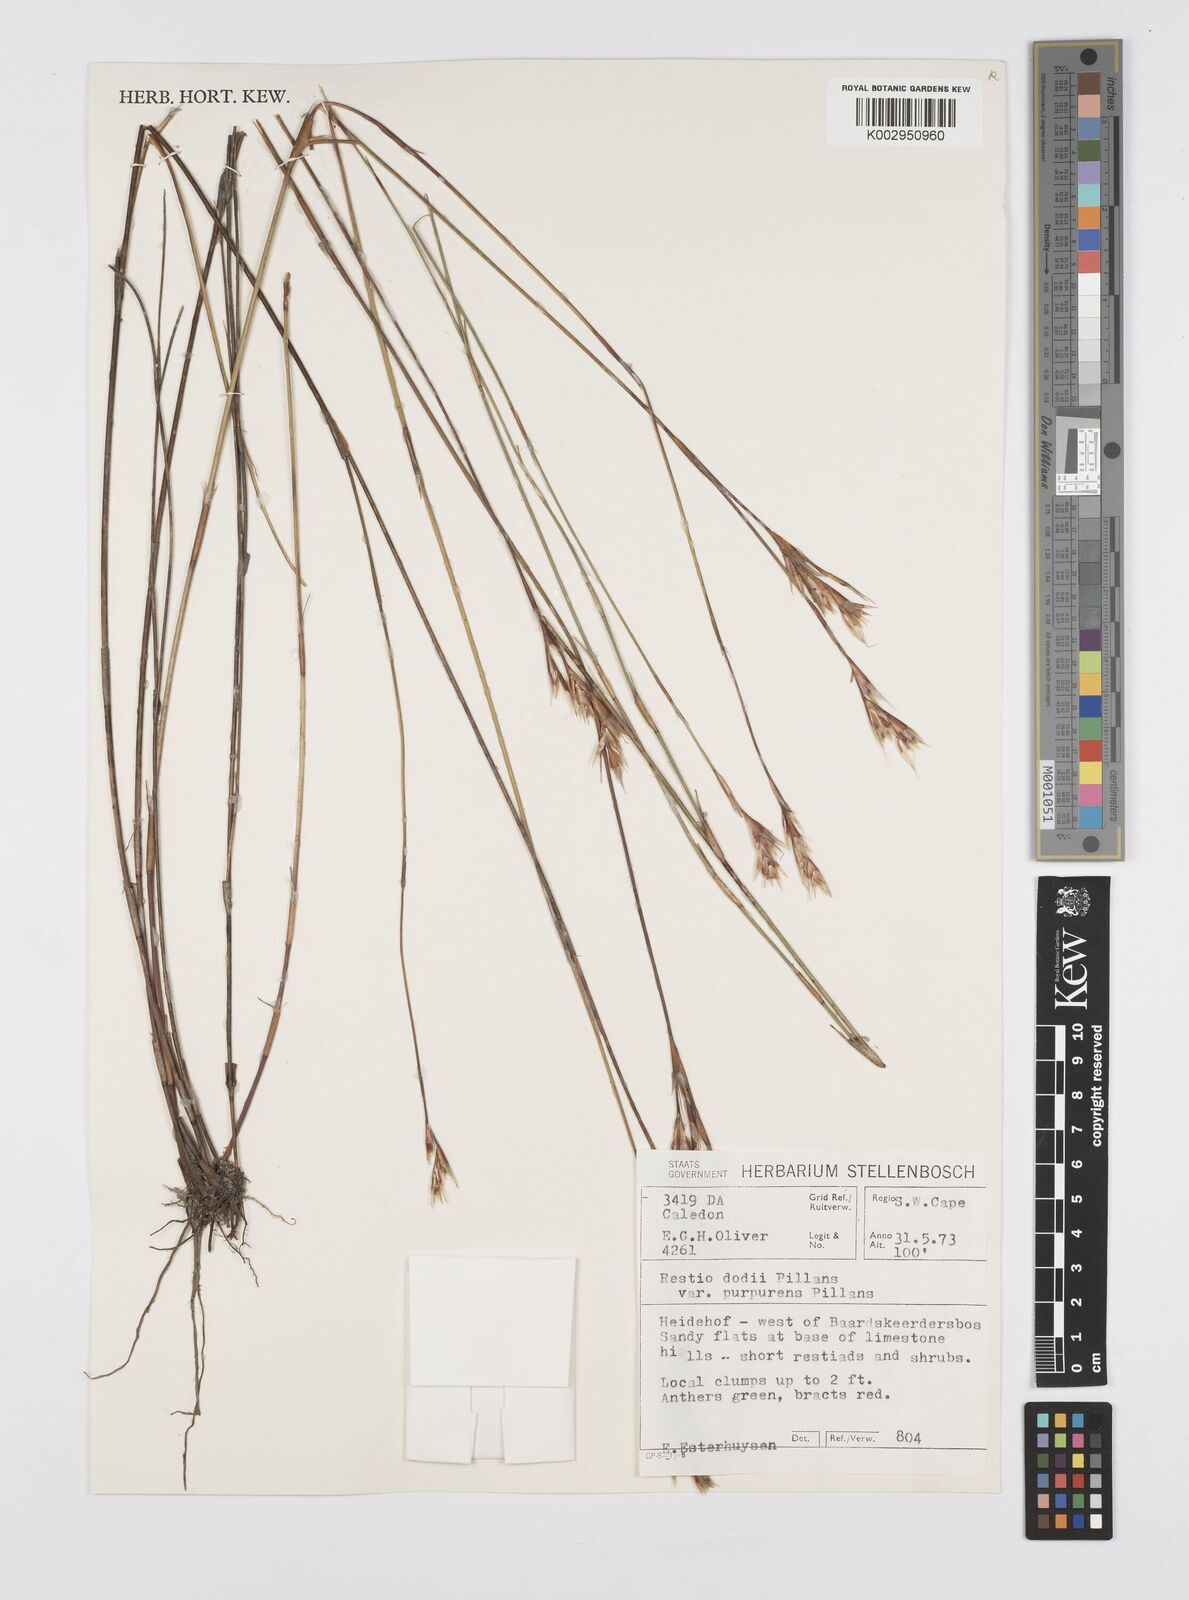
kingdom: Plantae
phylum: Tracheophyta
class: Liliopsida
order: Poales
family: Restionaceae
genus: Restio
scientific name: Restio dodii
